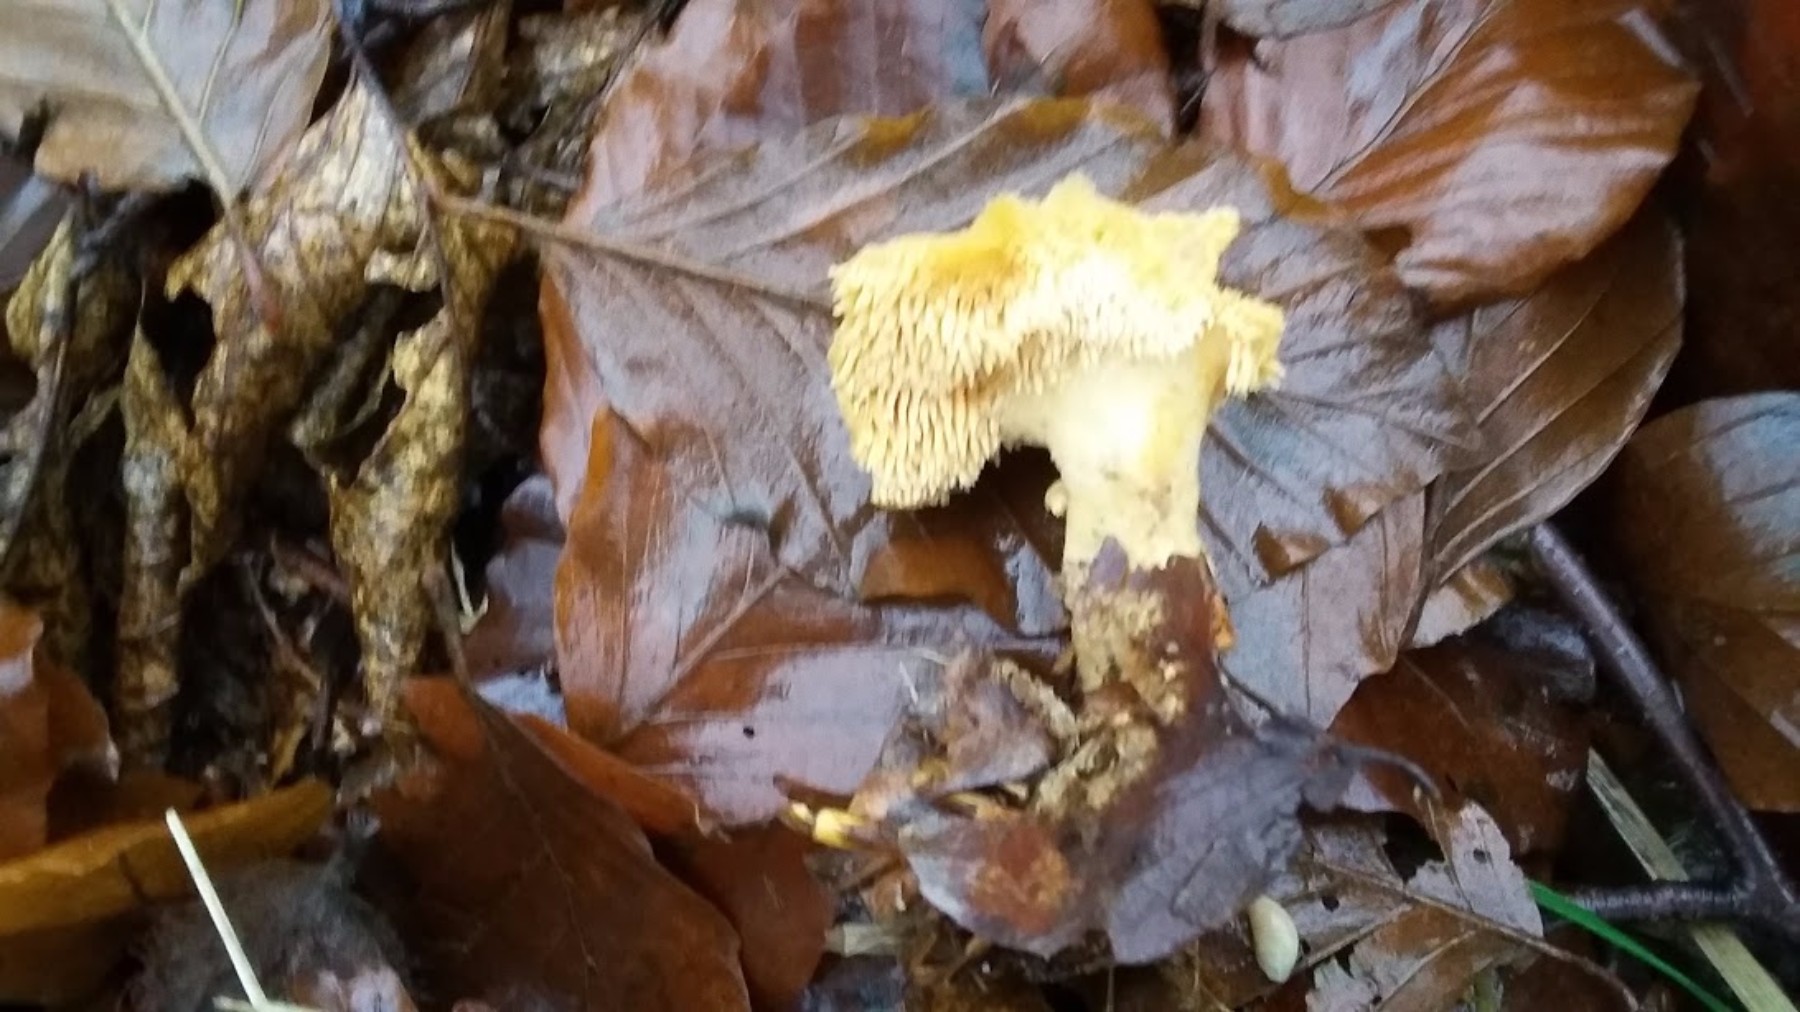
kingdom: Fungi
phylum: Basidiomycota
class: Agaricomycetes
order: Cantharellales
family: Hydnaceae
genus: Hydnum
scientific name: Hydnum
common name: pigsvamp
